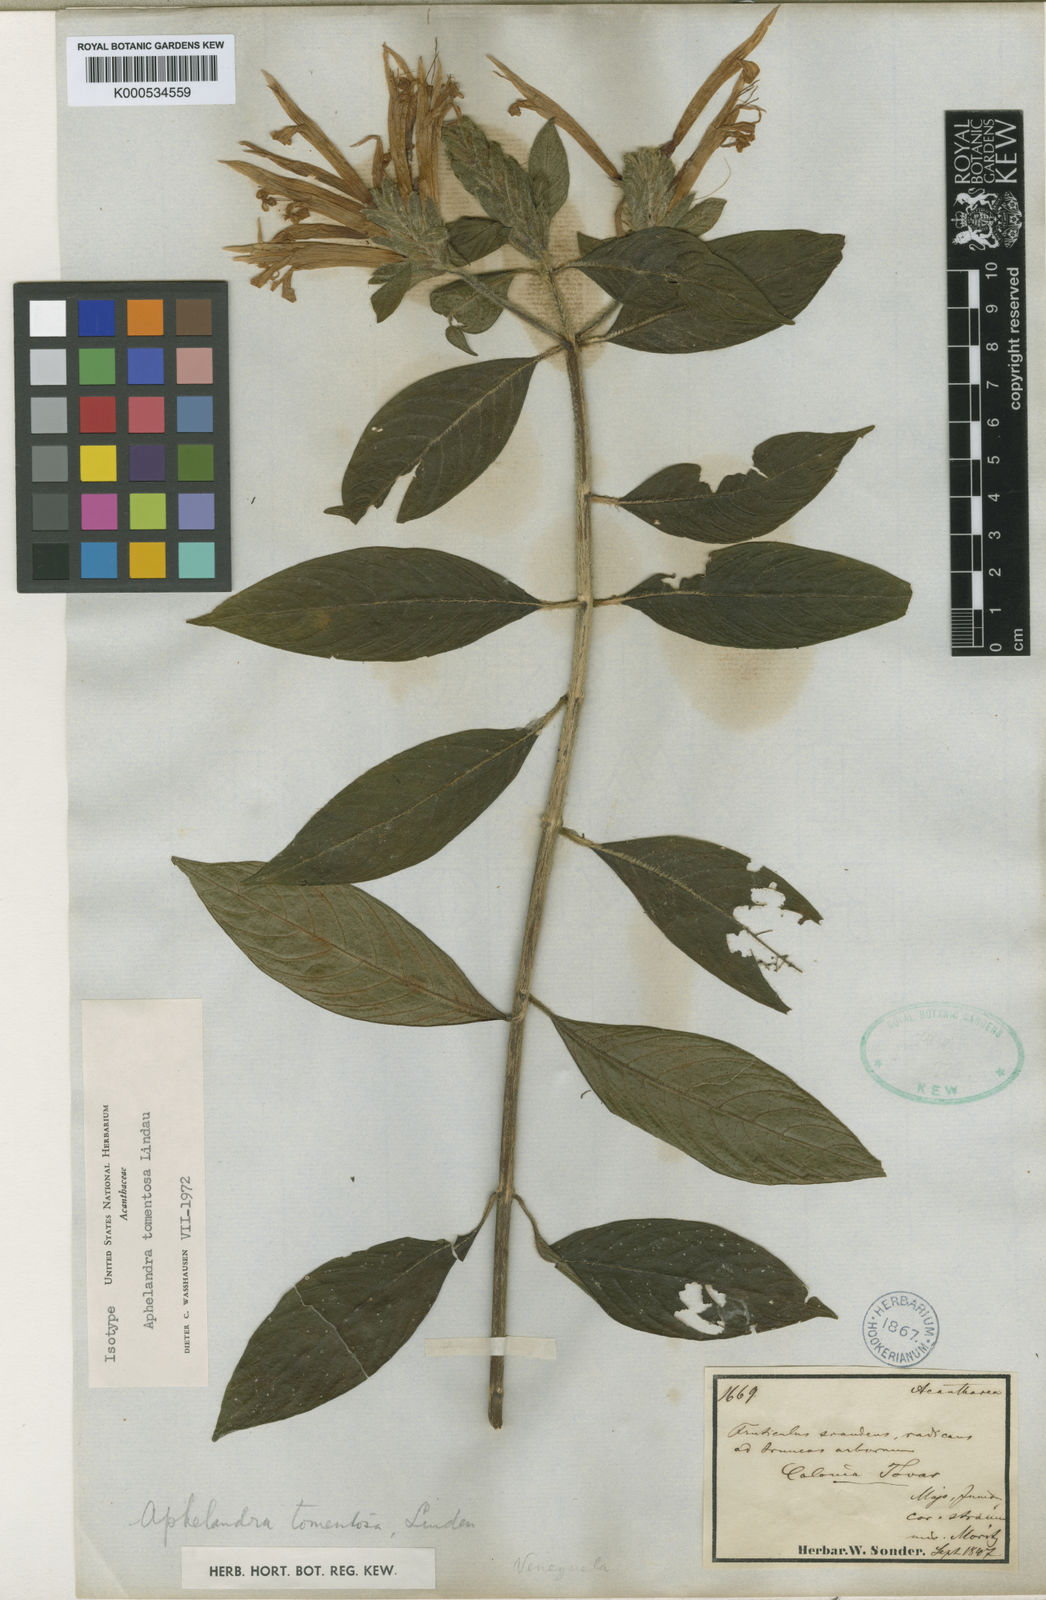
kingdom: Plantae
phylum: Tracheophyta
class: Magnoliopsida
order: Lamiales
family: Acanthaceae
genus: Aphelandra
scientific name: Aphelandra tomentosa
